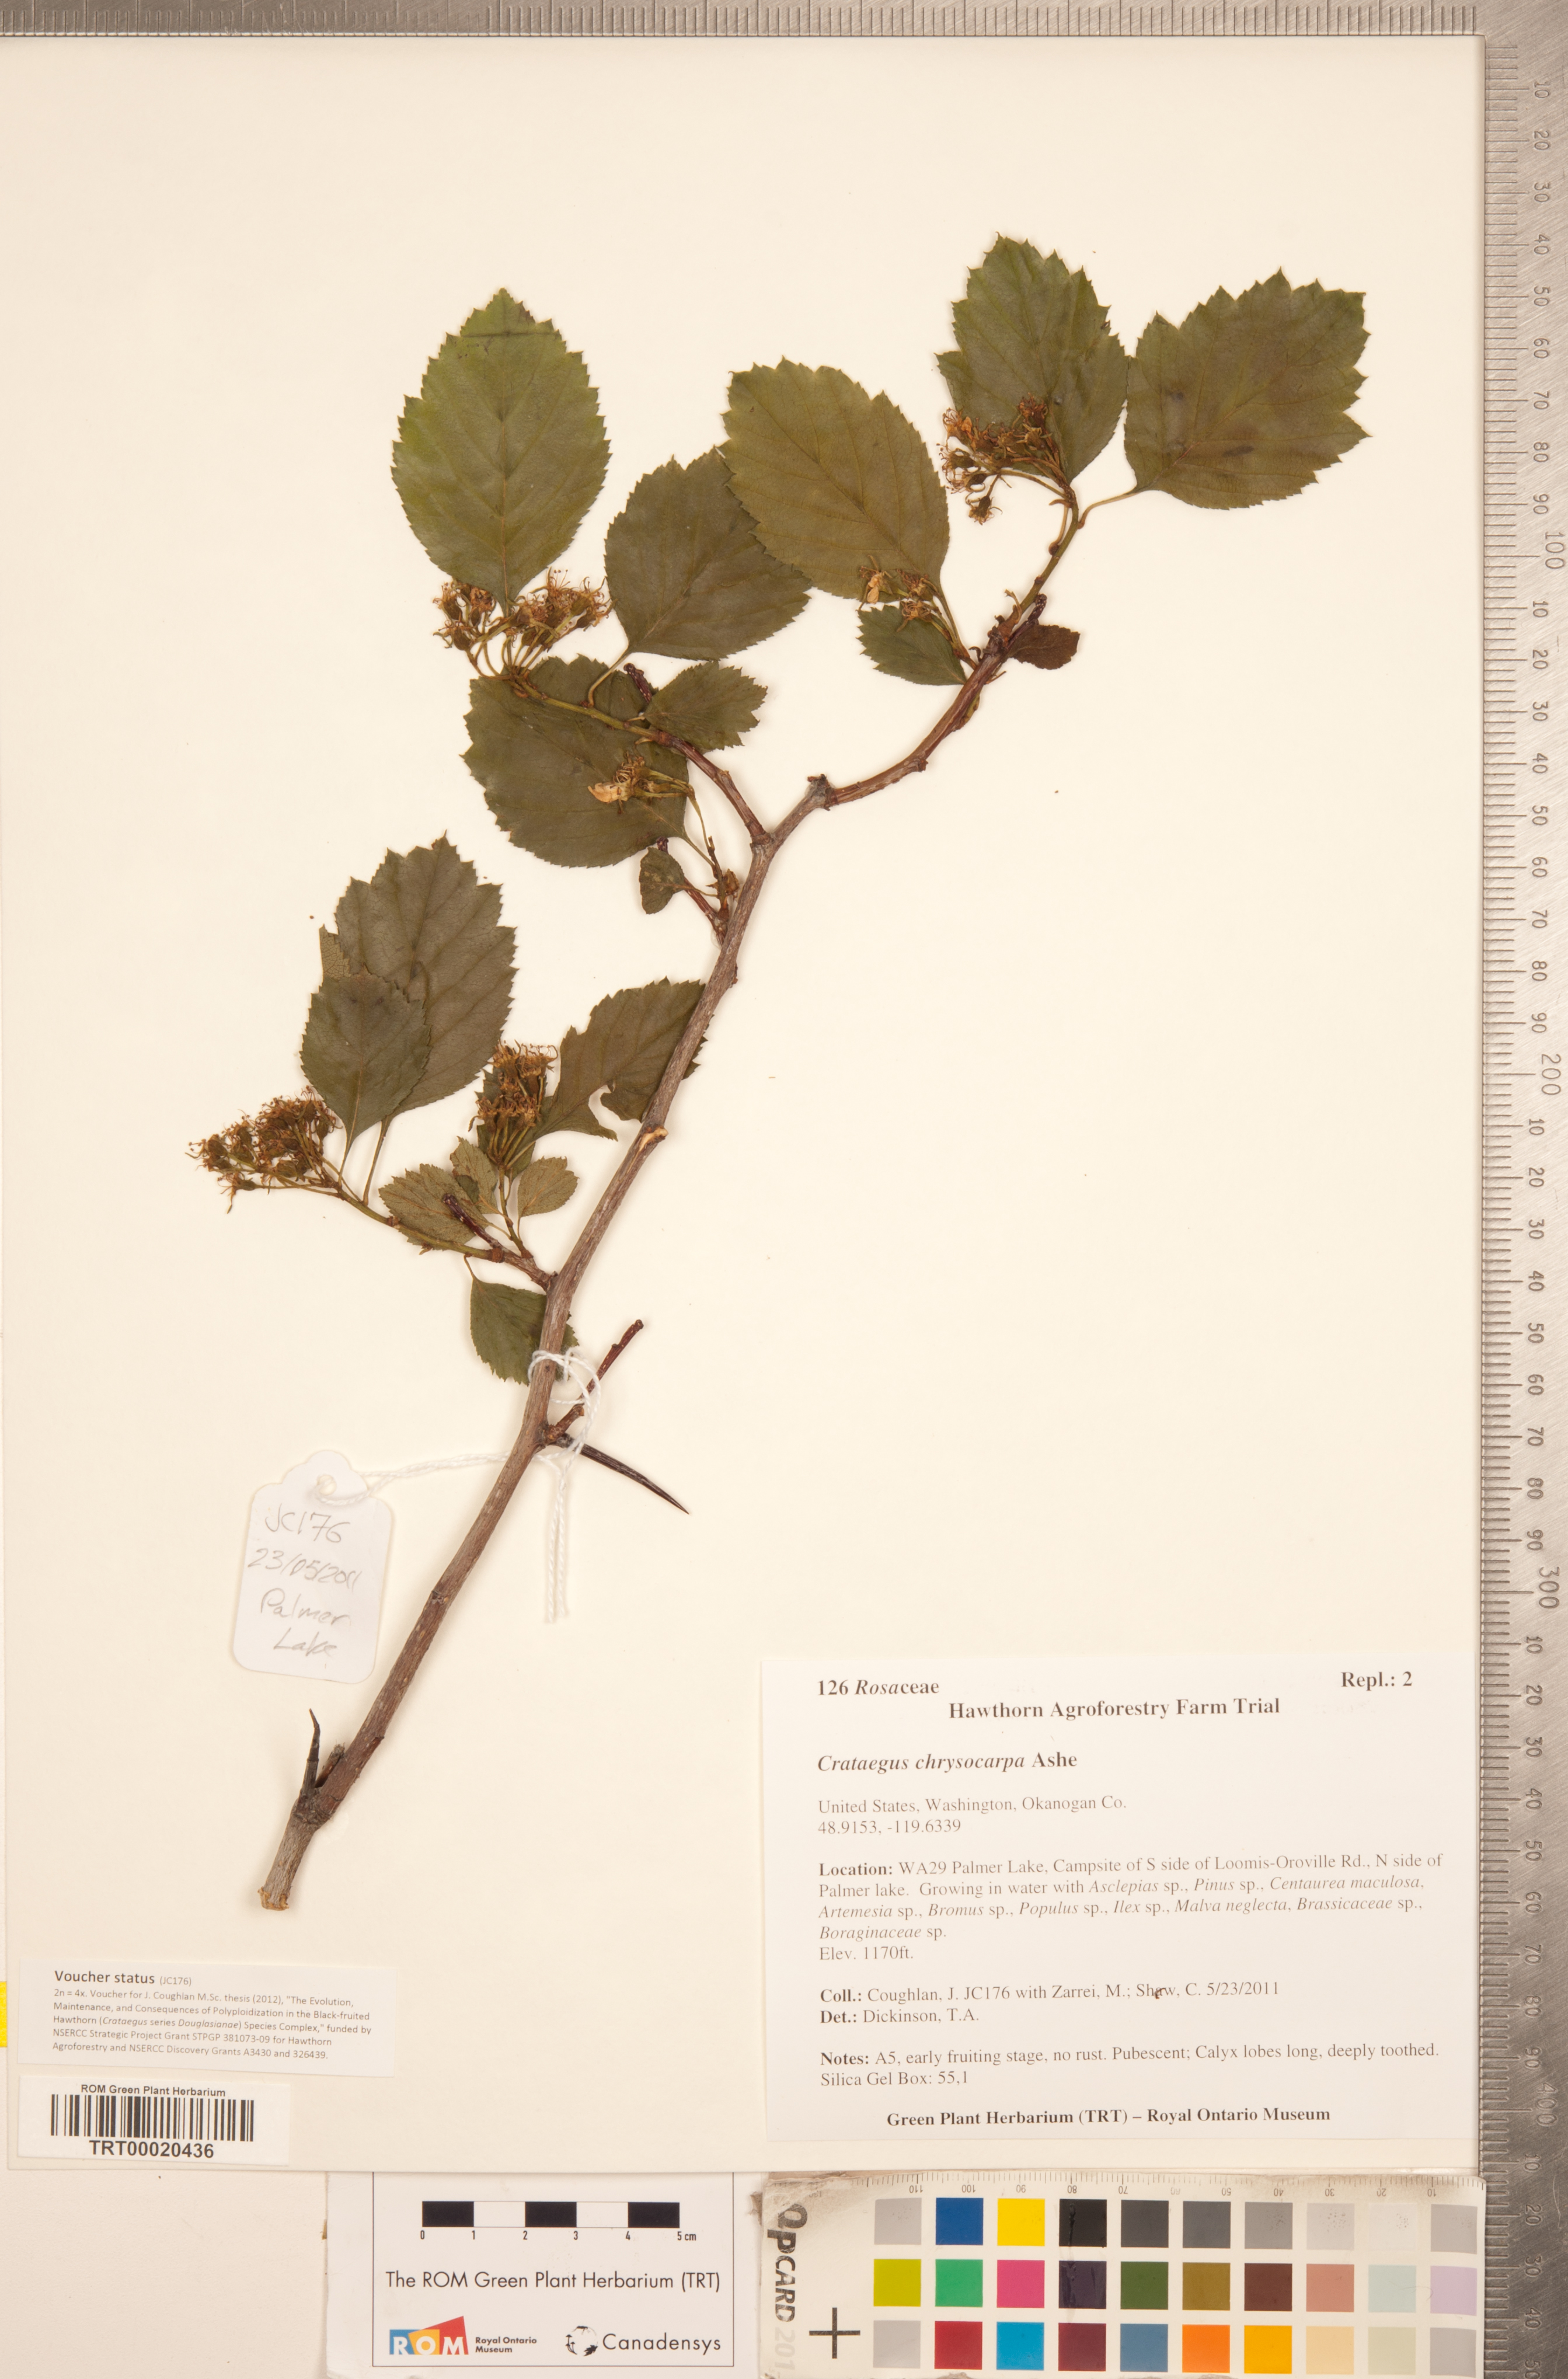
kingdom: Plantae
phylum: Tracheophyta
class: Magnoliopsida
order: Rosales
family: Rosaceae
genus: Crataegus
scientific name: Crataegus chrysocarpa
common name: Fire-berry hawthorn
